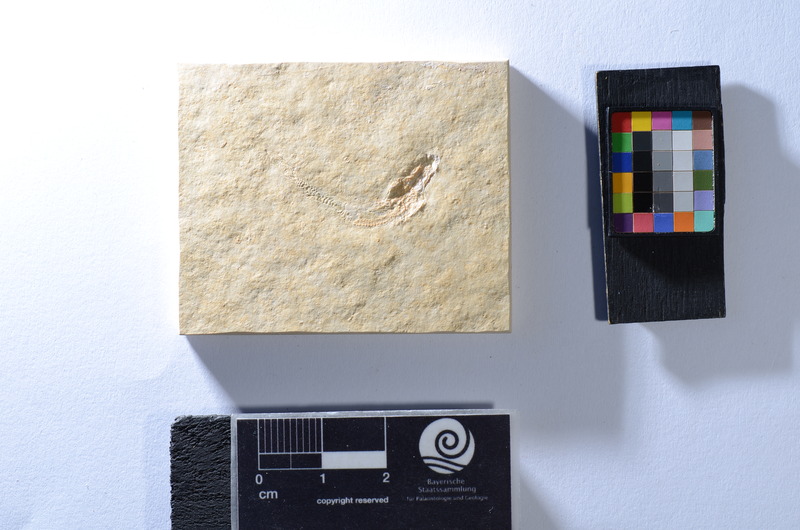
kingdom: Animalia
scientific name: Animalia
